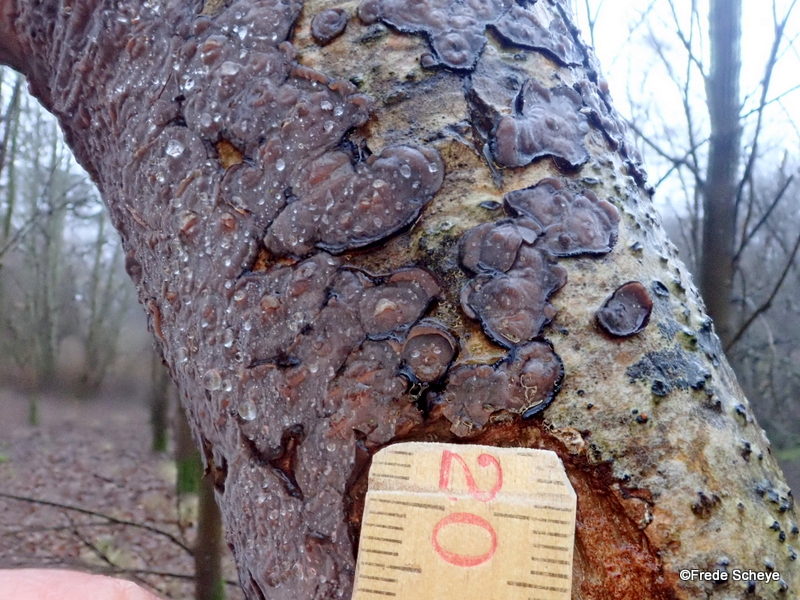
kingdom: Fungi
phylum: Basidiomycota
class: Agaricomycetes
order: Russulales
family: Peniophoraceae
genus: Peniophora
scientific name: Peniophora quercina
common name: ege-voksskind
